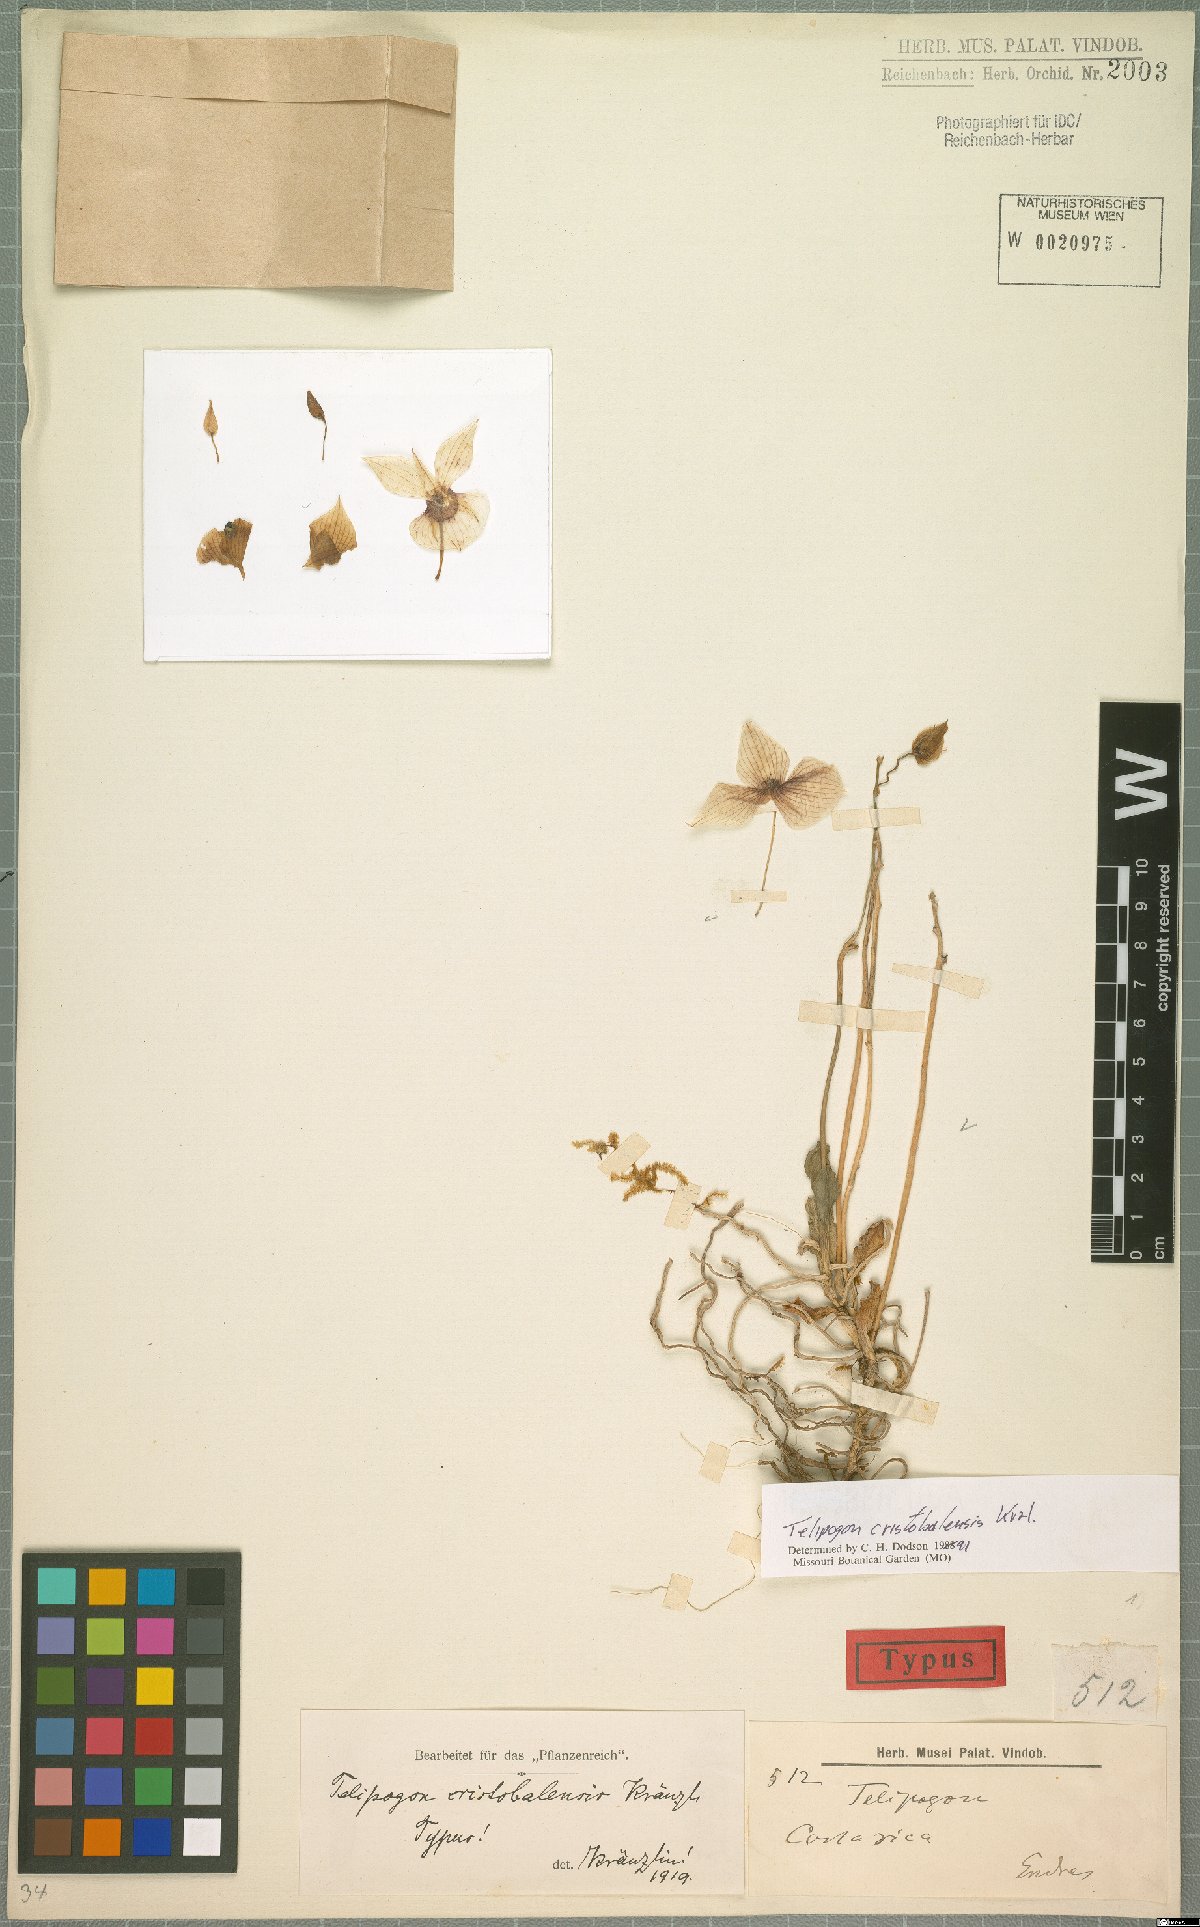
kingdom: Plantae
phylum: Tracheophyta
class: Liliopsida
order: Asparagales
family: Orchidaceae
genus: Telipogon
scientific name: Telipogon christobalensis
